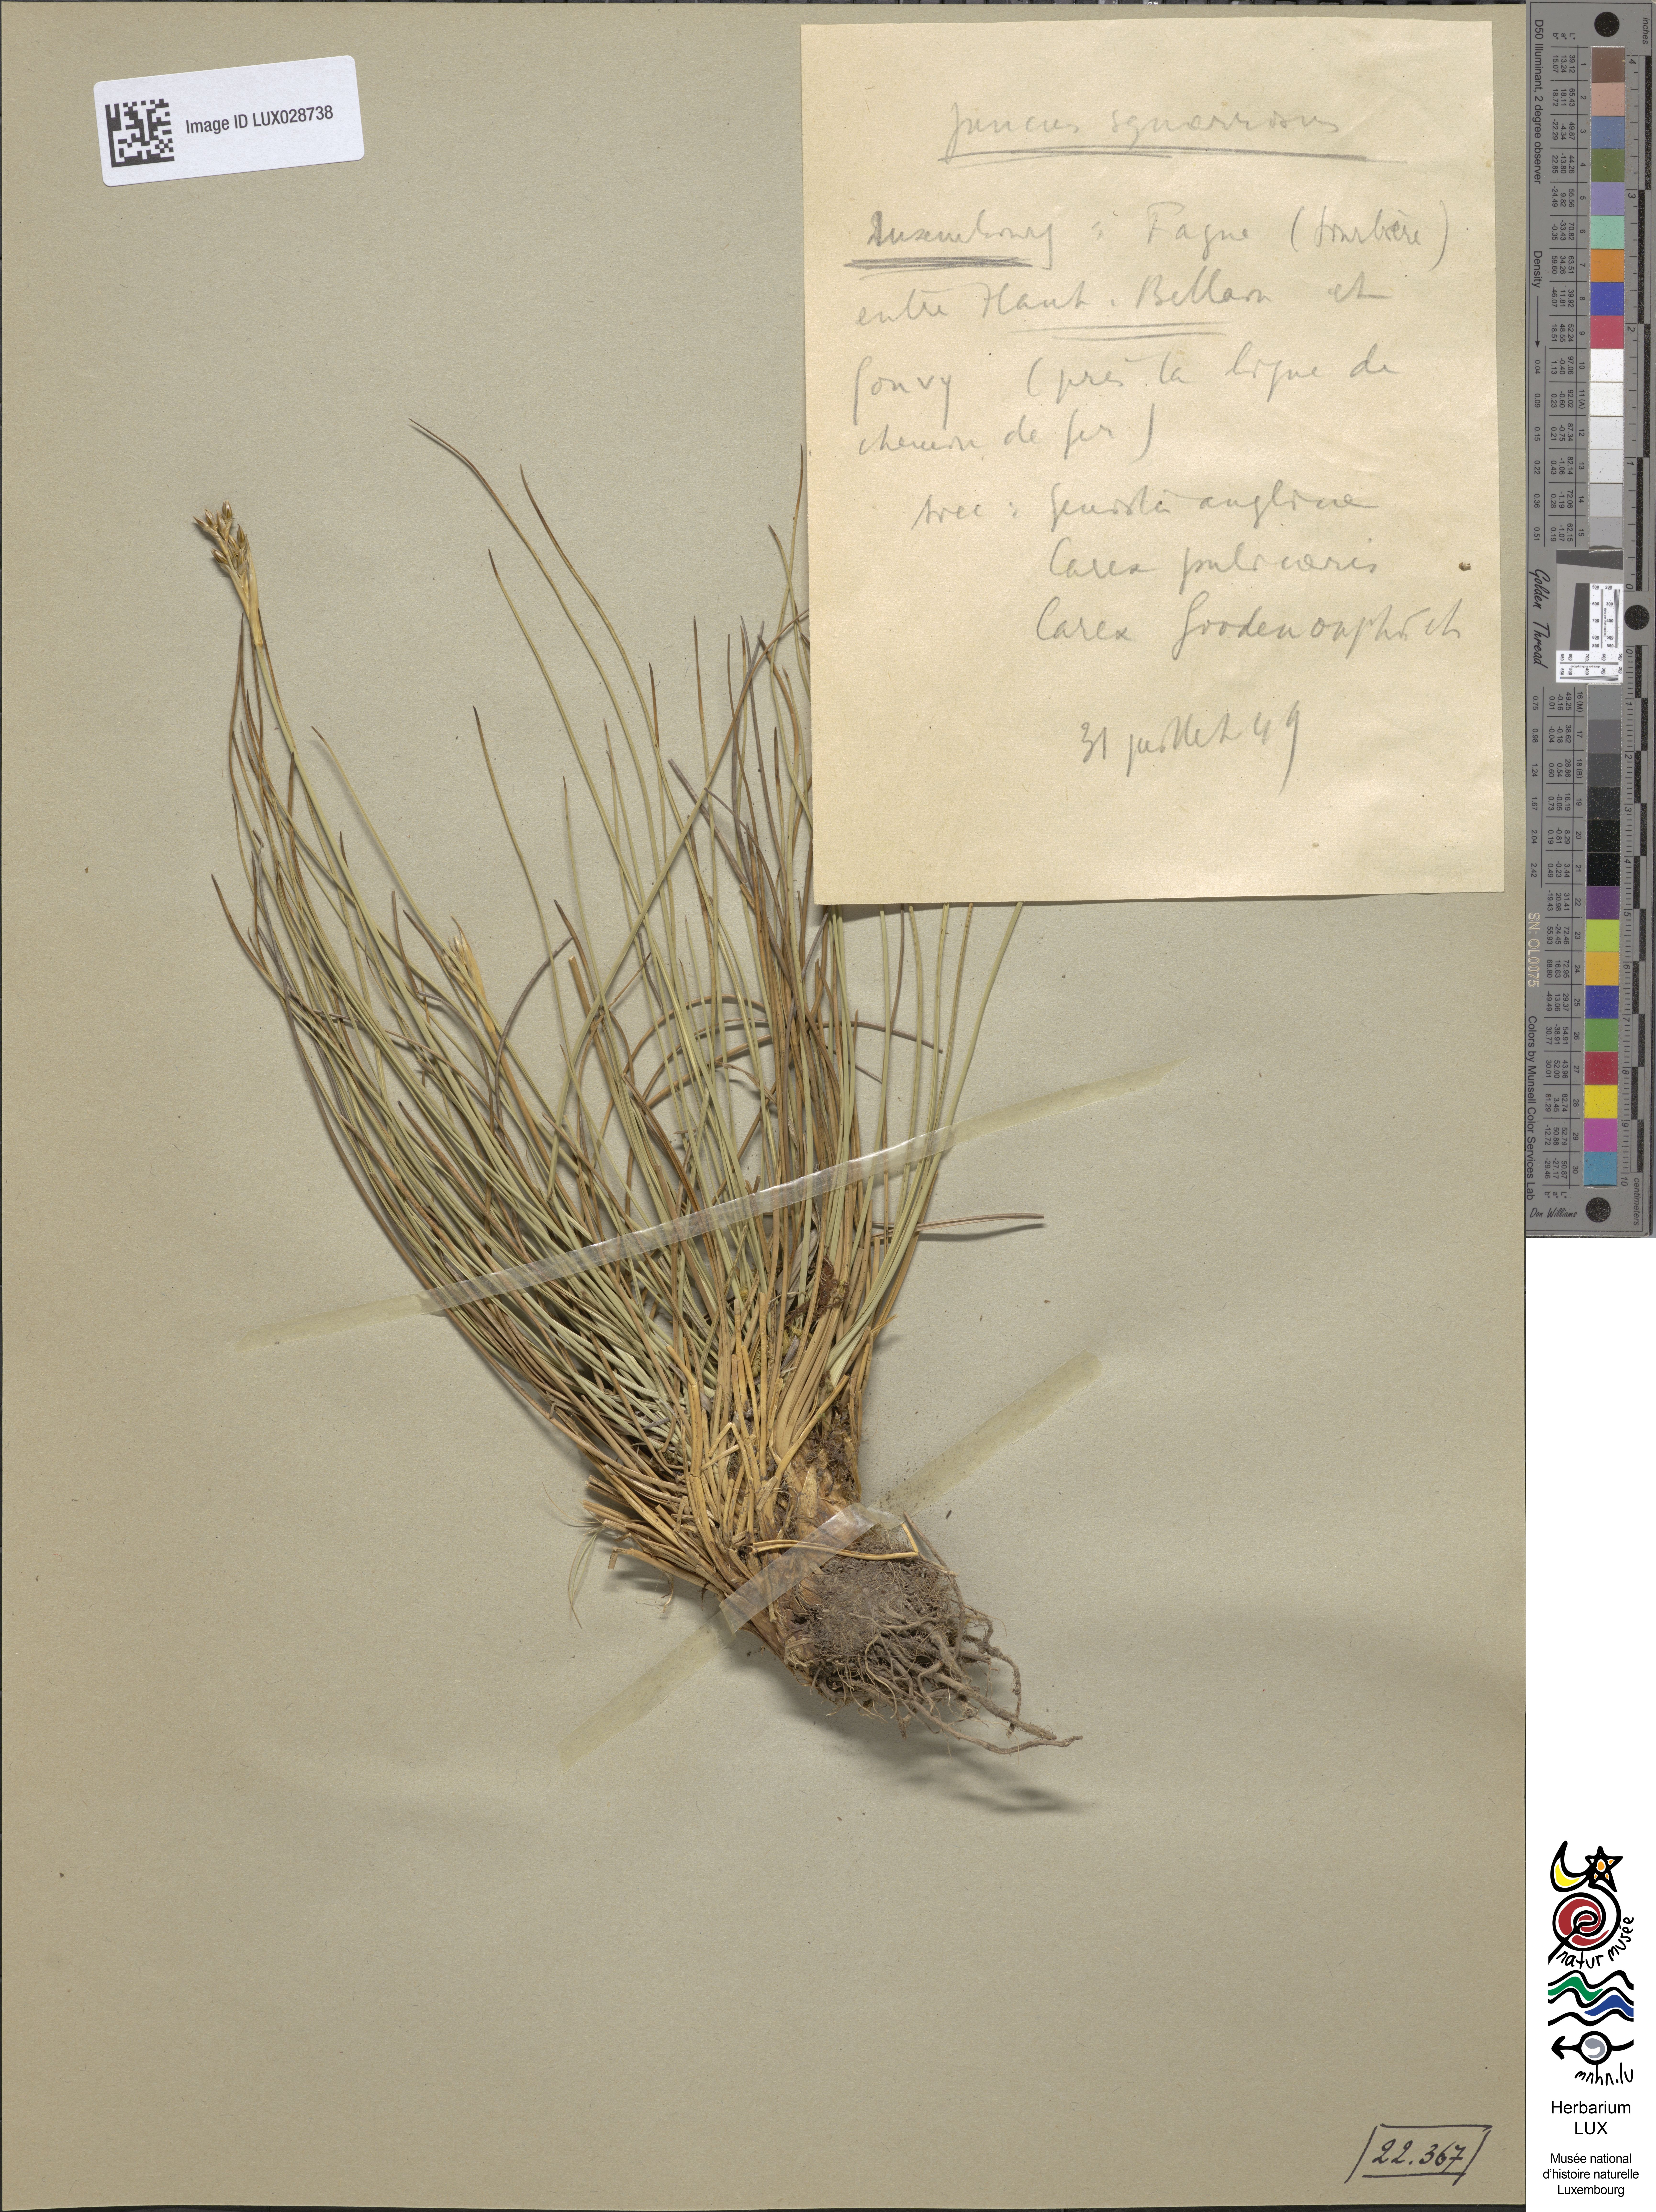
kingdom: Plantae
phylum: Tracheophyta
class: Liliopsida
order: Poales
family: Juncaceae
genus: Juncus
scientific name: Juncus squarrosus
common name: Heath rush
